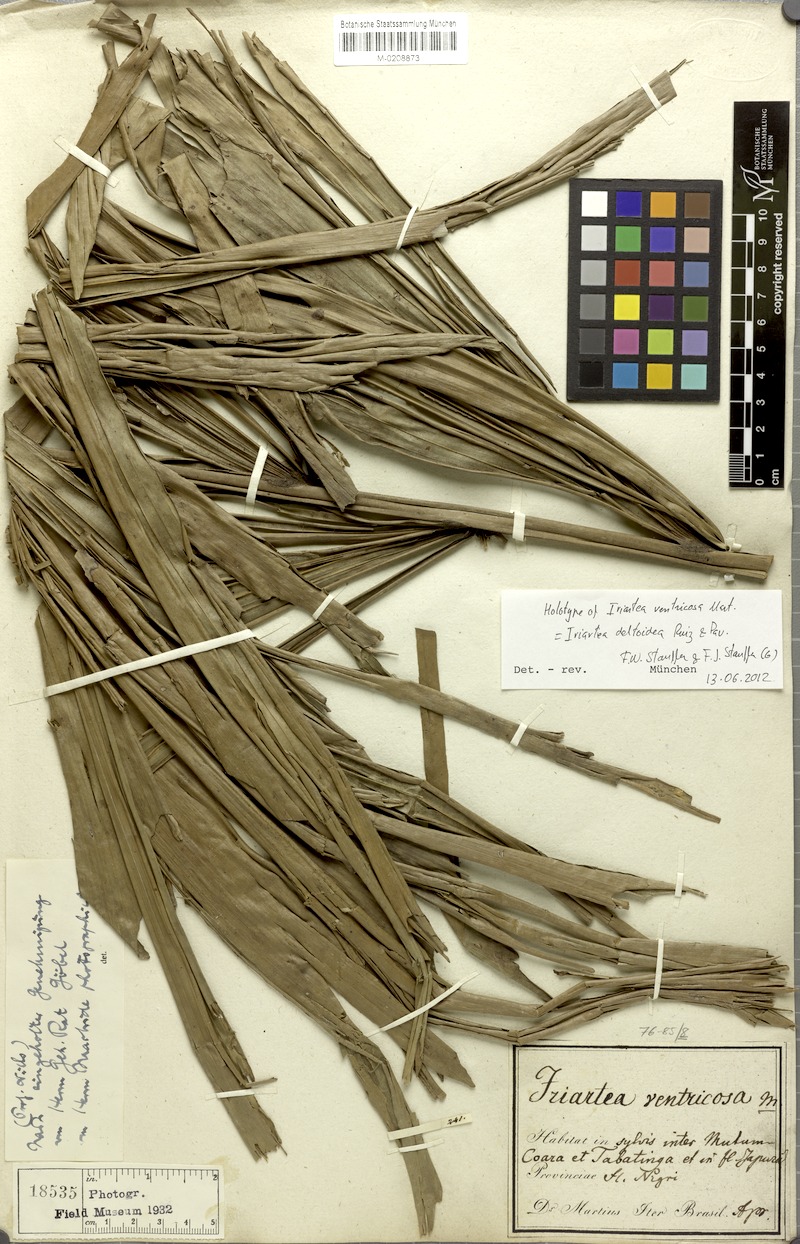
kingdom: Plantae
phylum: Tracheophyta
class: Liliopsida
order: Arecales
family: Arecaceae
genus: Iriartea
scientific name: Iriartea deltoidea
